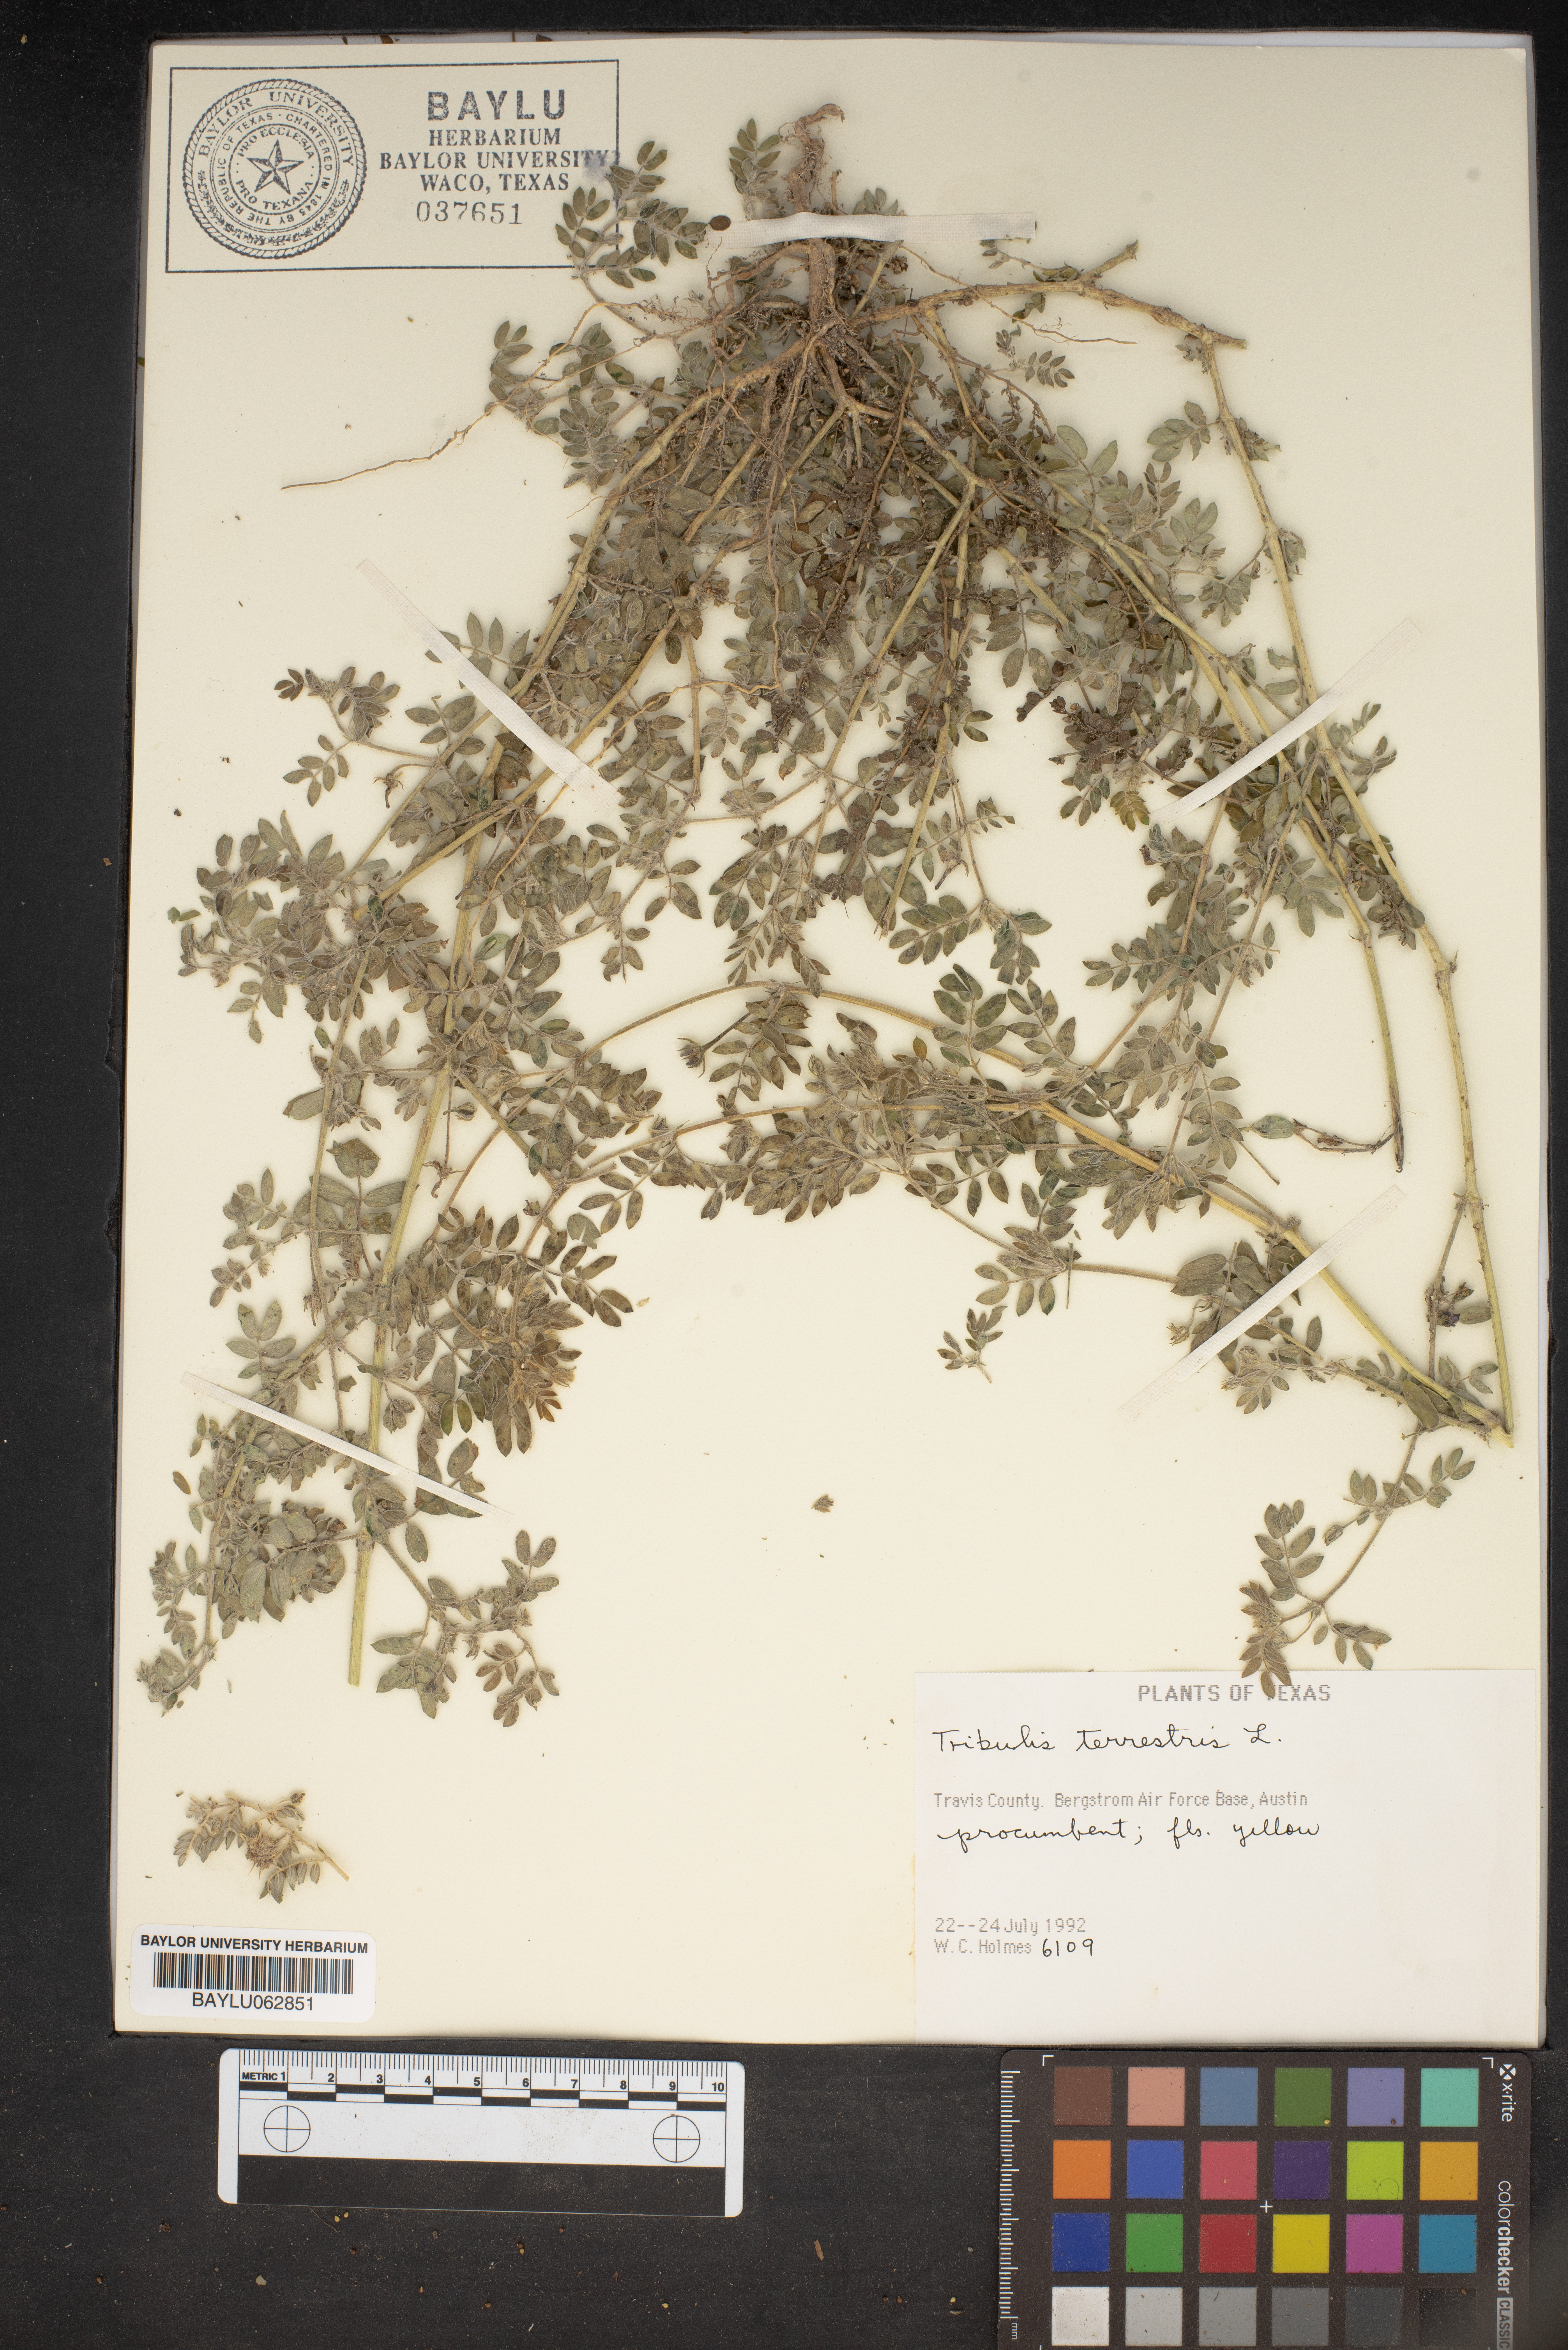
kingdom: Plantae
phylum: Tracheophyta
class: Magnoliopsida
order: Zygophyllales
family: Zygophyllaceae
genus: Tribulus
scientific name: Tribulus terrestris
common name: Puncturevine
